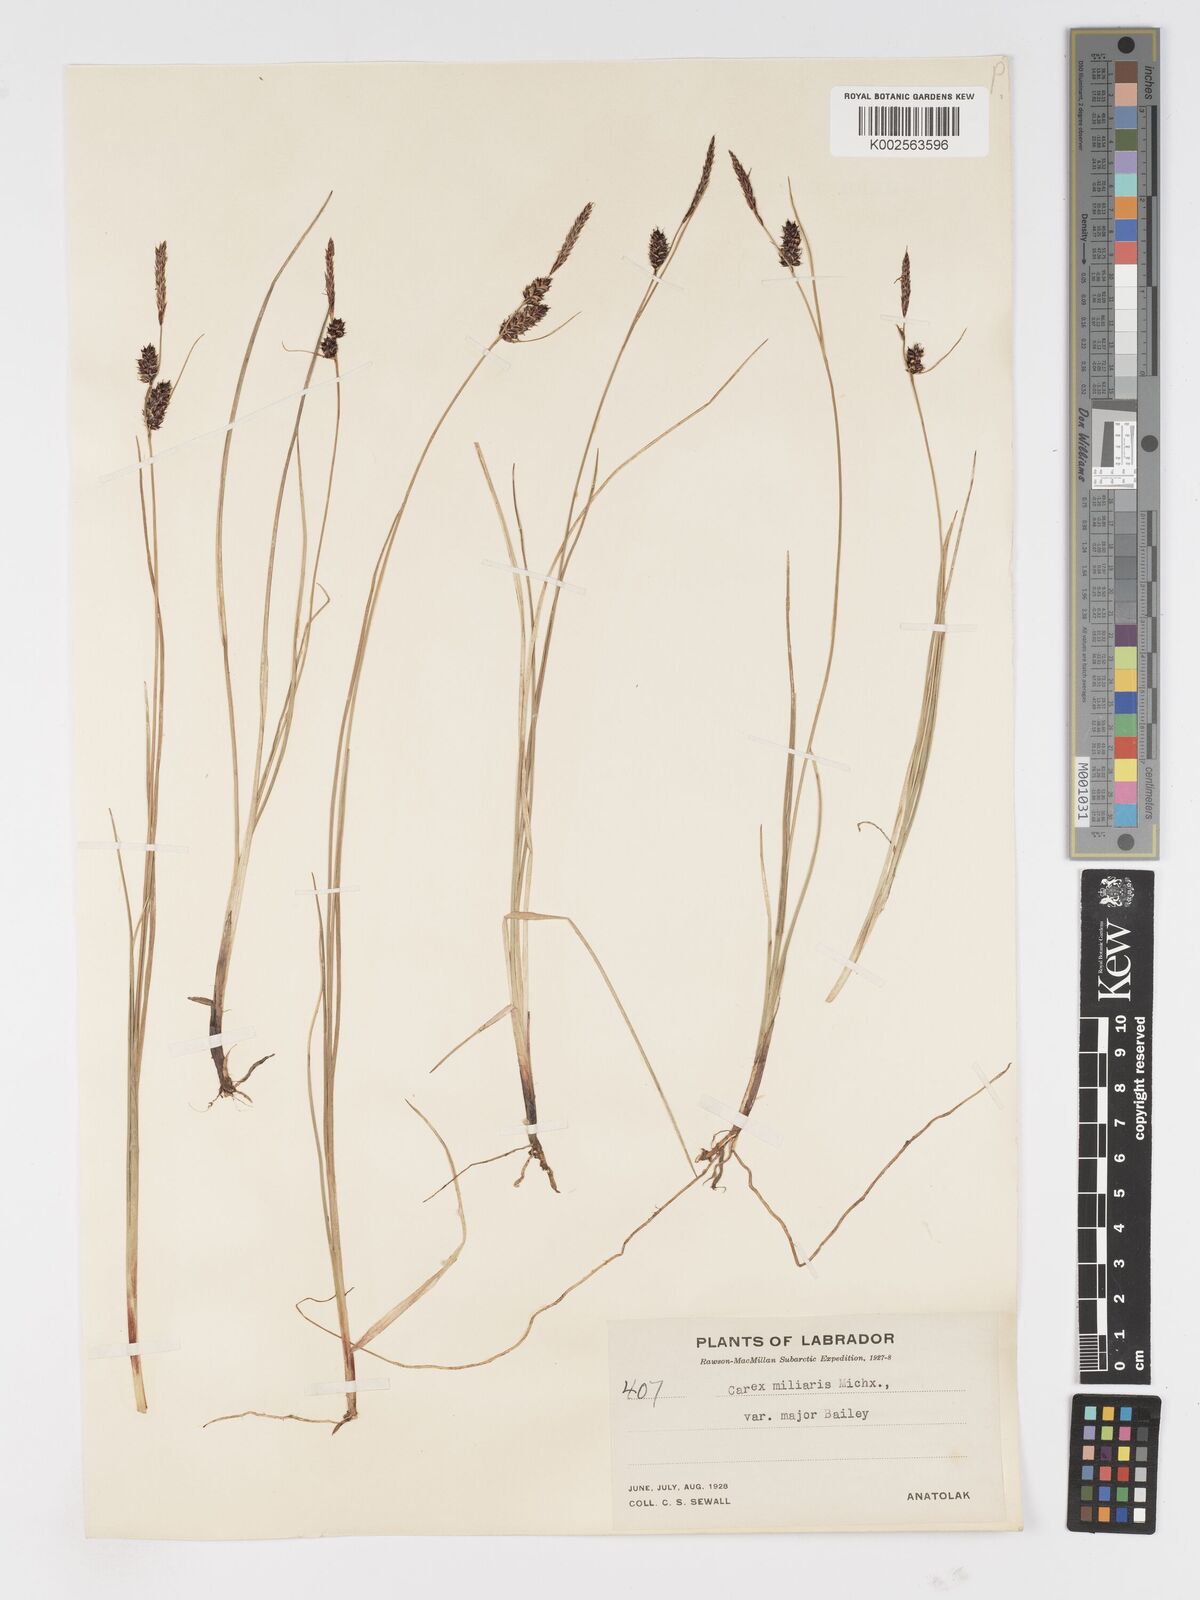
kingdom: Plantae
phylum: Tracheophyta
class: Liliopsida
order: Poales
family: Cyperaceae
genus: Carex
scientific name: Carex miliaris
